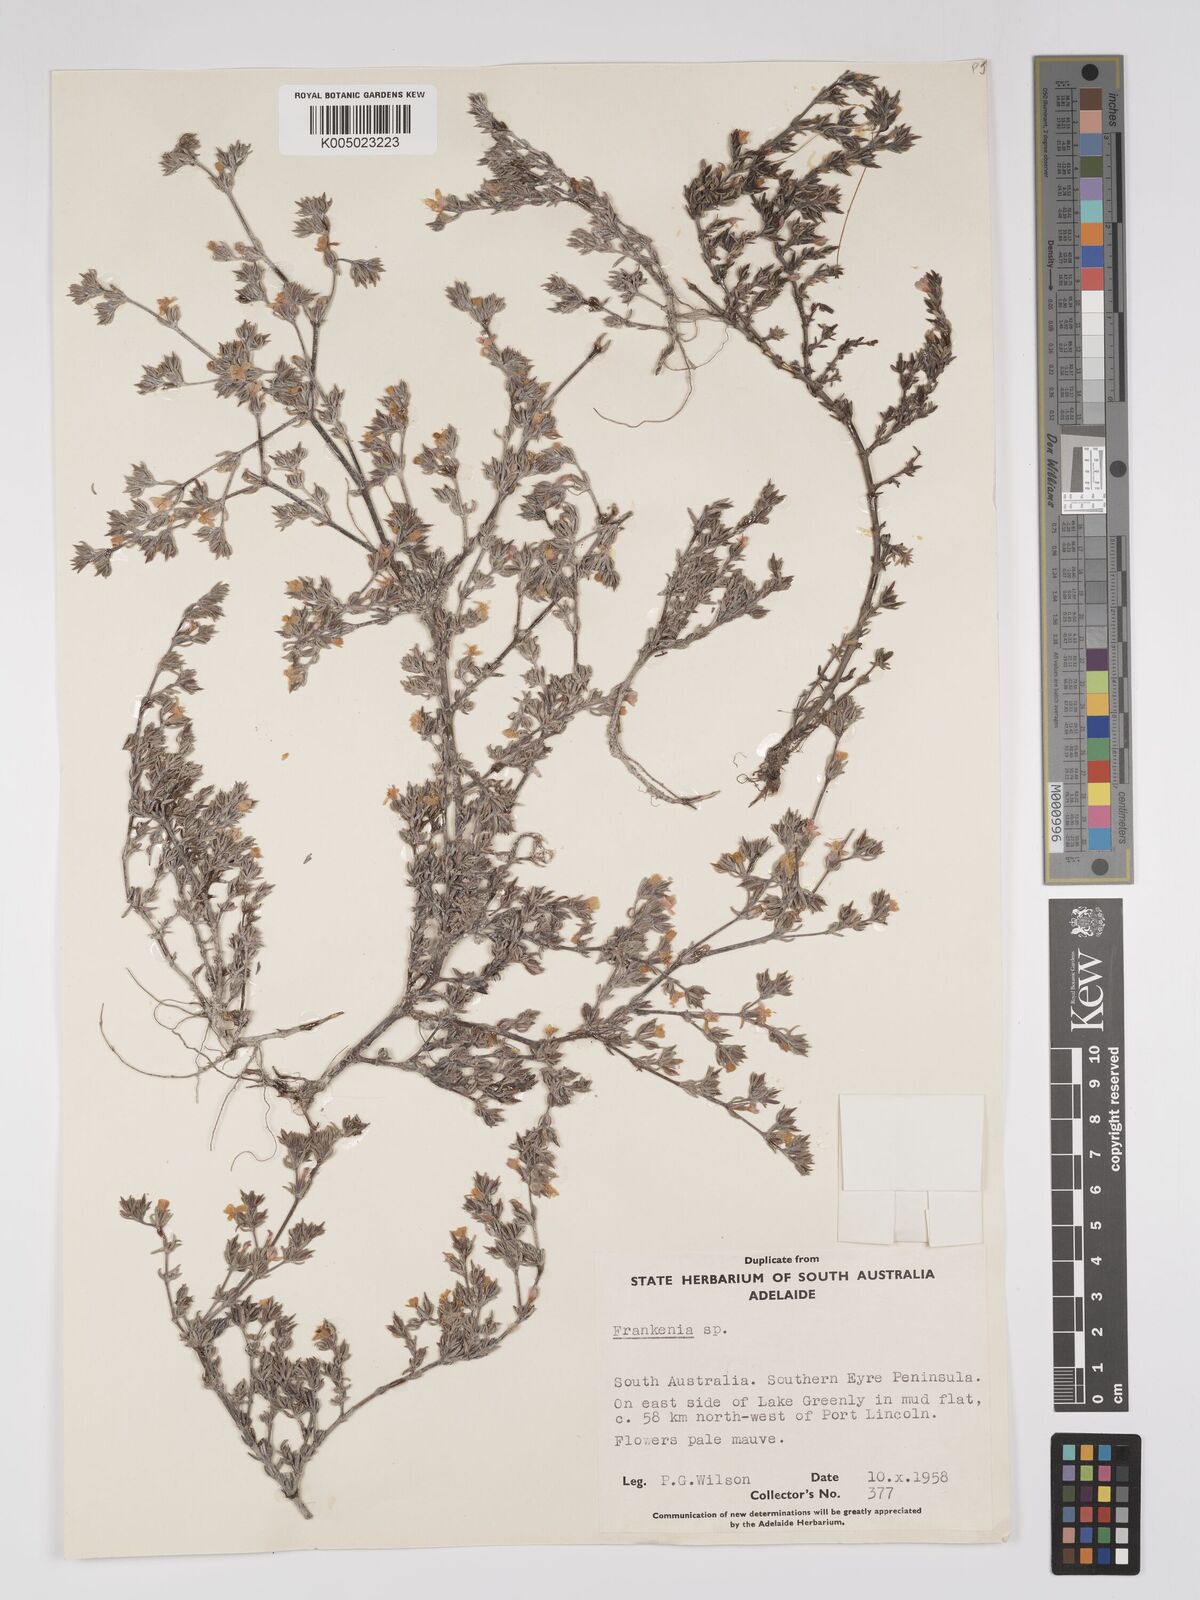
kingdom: Plantae
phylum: Tracheophyta
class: Magnoliopsida
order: Caryophyllales
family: Frankeniaceae
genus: Frankenia
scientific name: Frankenia
